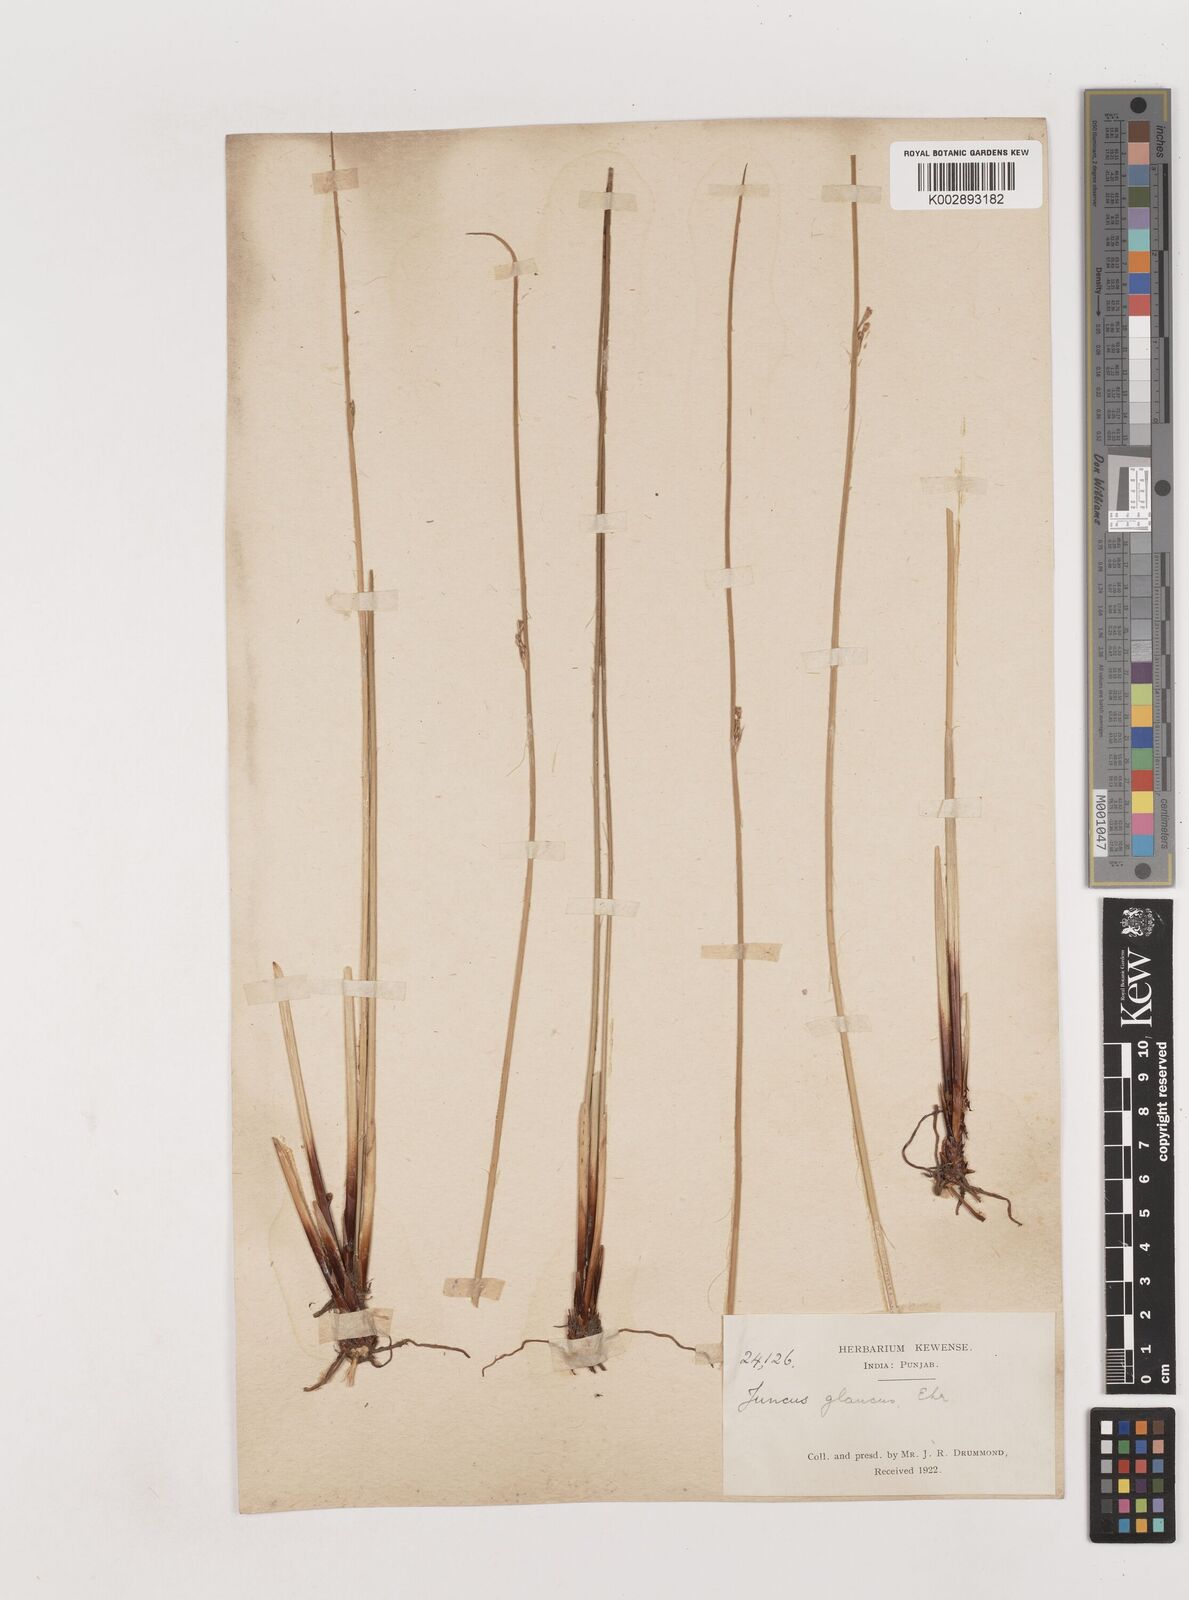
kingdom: Plantae
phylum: Tracheophyta
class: Liliopsida
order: Poales
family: Juncaceae
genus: Juncus
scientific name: Juncus inflexus
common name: Hard rush
